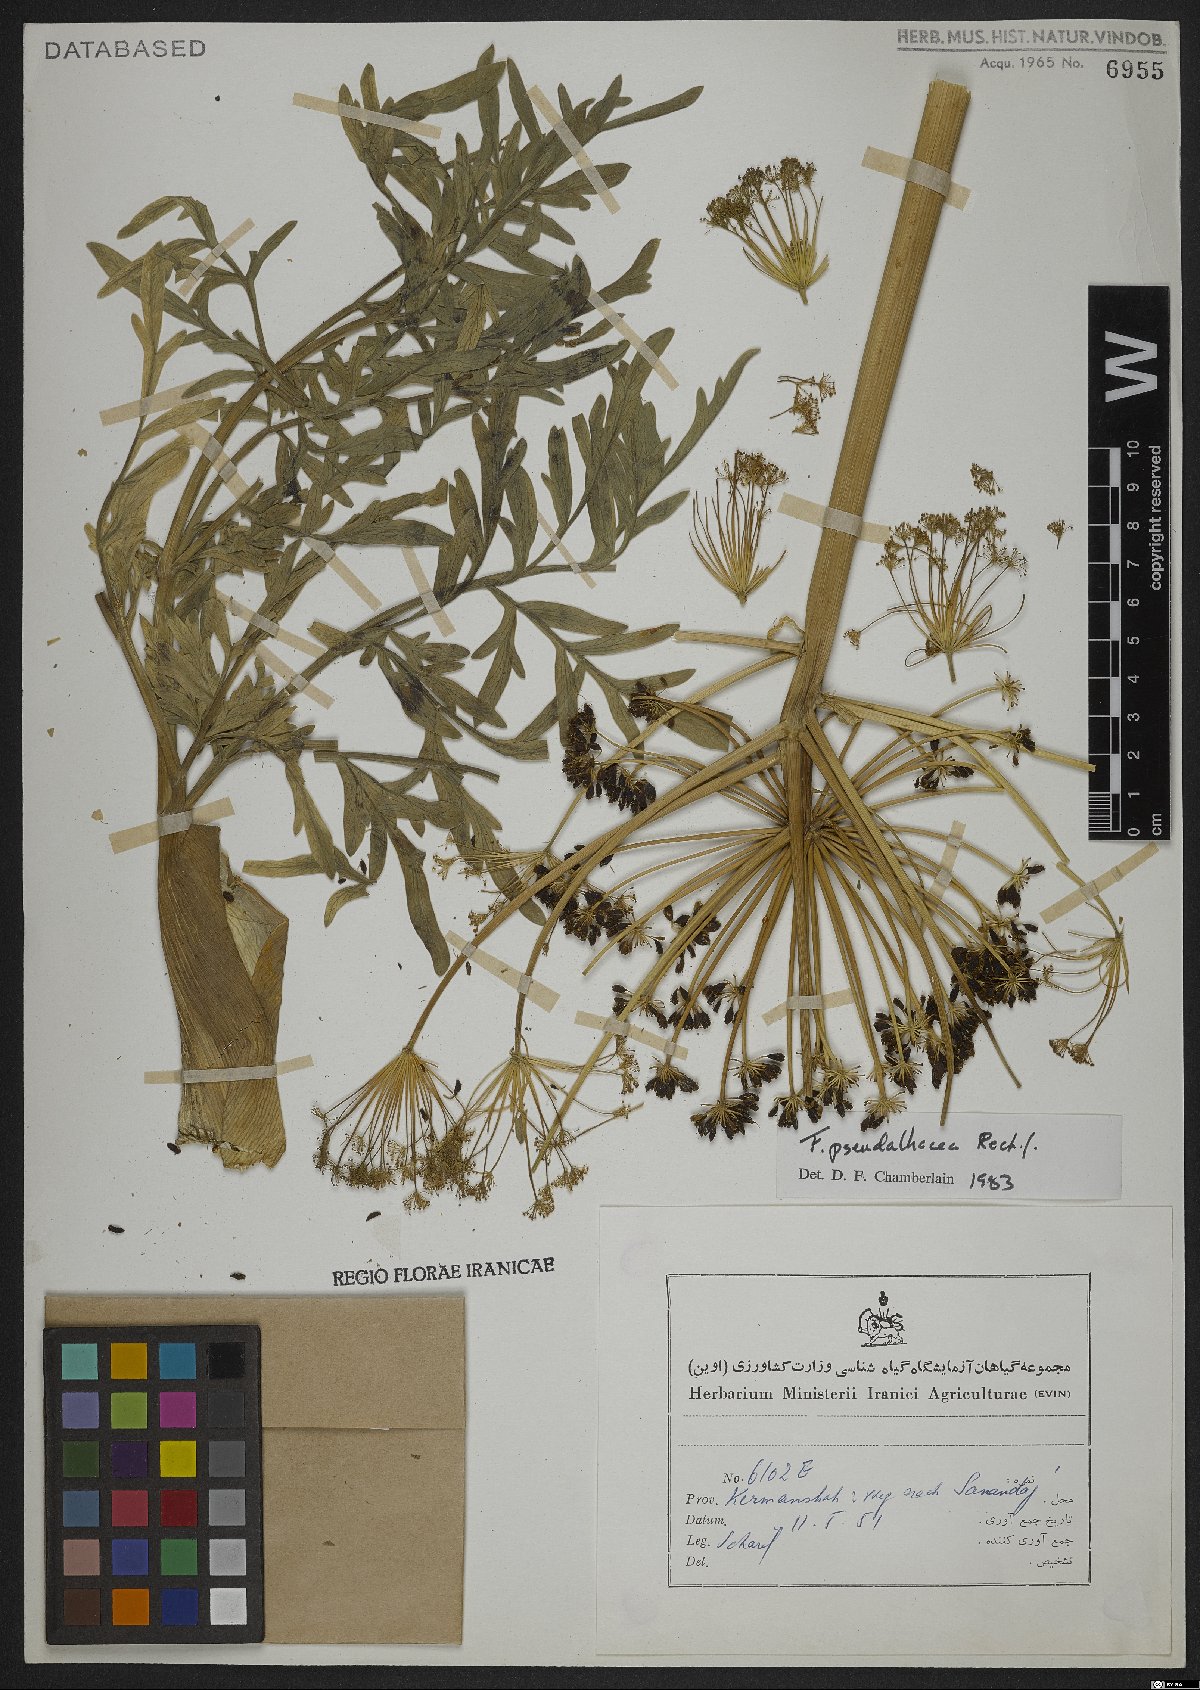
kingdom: Plantae
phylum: Tracheophyta
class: Magnoliopsida
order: Apiales
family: Apiaceae
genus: Ferula
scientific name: Ferula pseudalliacea
